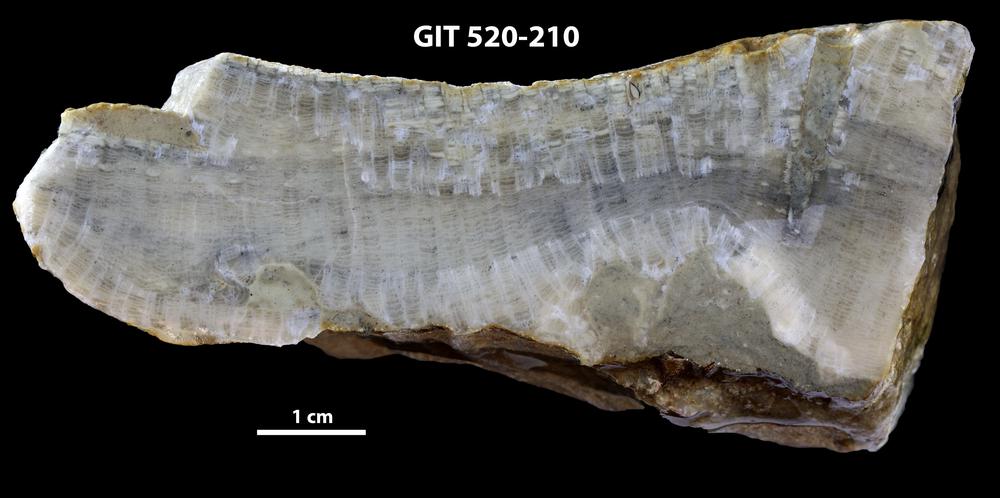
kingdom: Animalia
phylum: Xenacoelomorpha
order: Acoela
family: Proporidae
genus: Propora
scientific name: Propora
